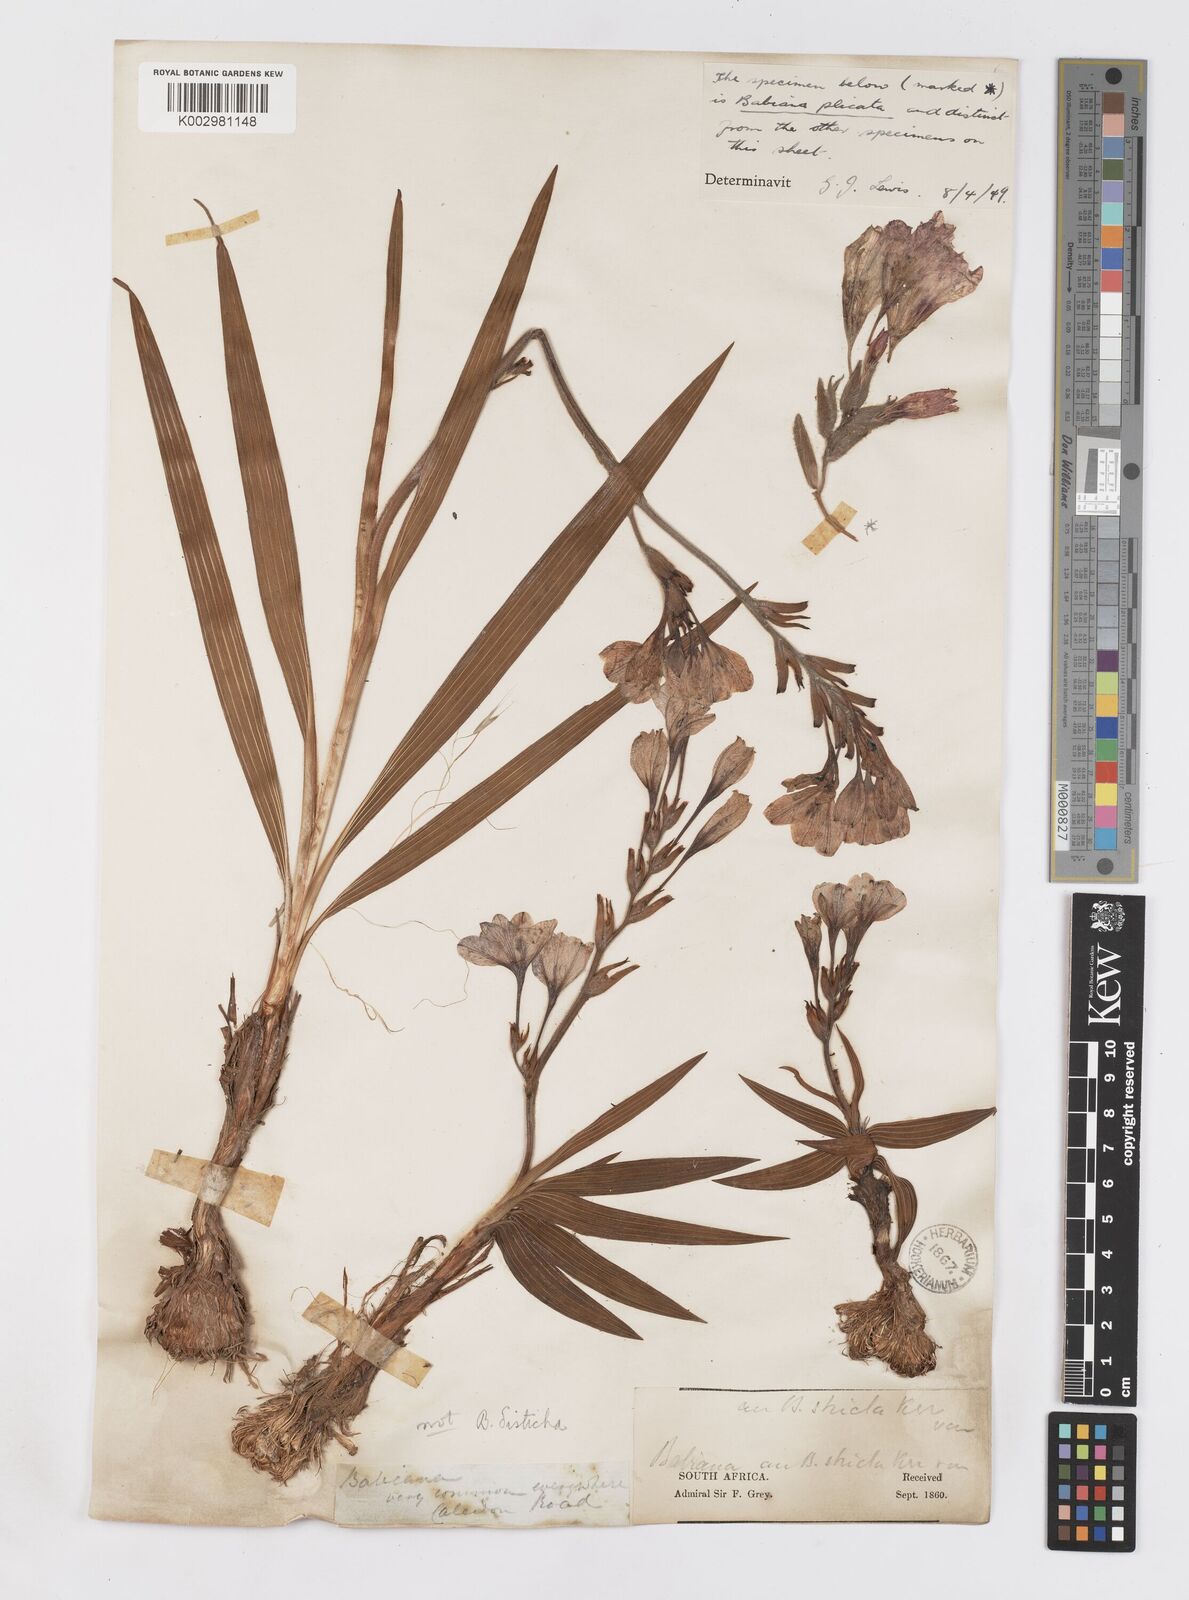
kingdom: Plantae
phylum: Tracheophyta
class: Liliopsida
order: Asparagales
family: Iridaceae
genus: Babiana
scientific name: Babiana fragrans
